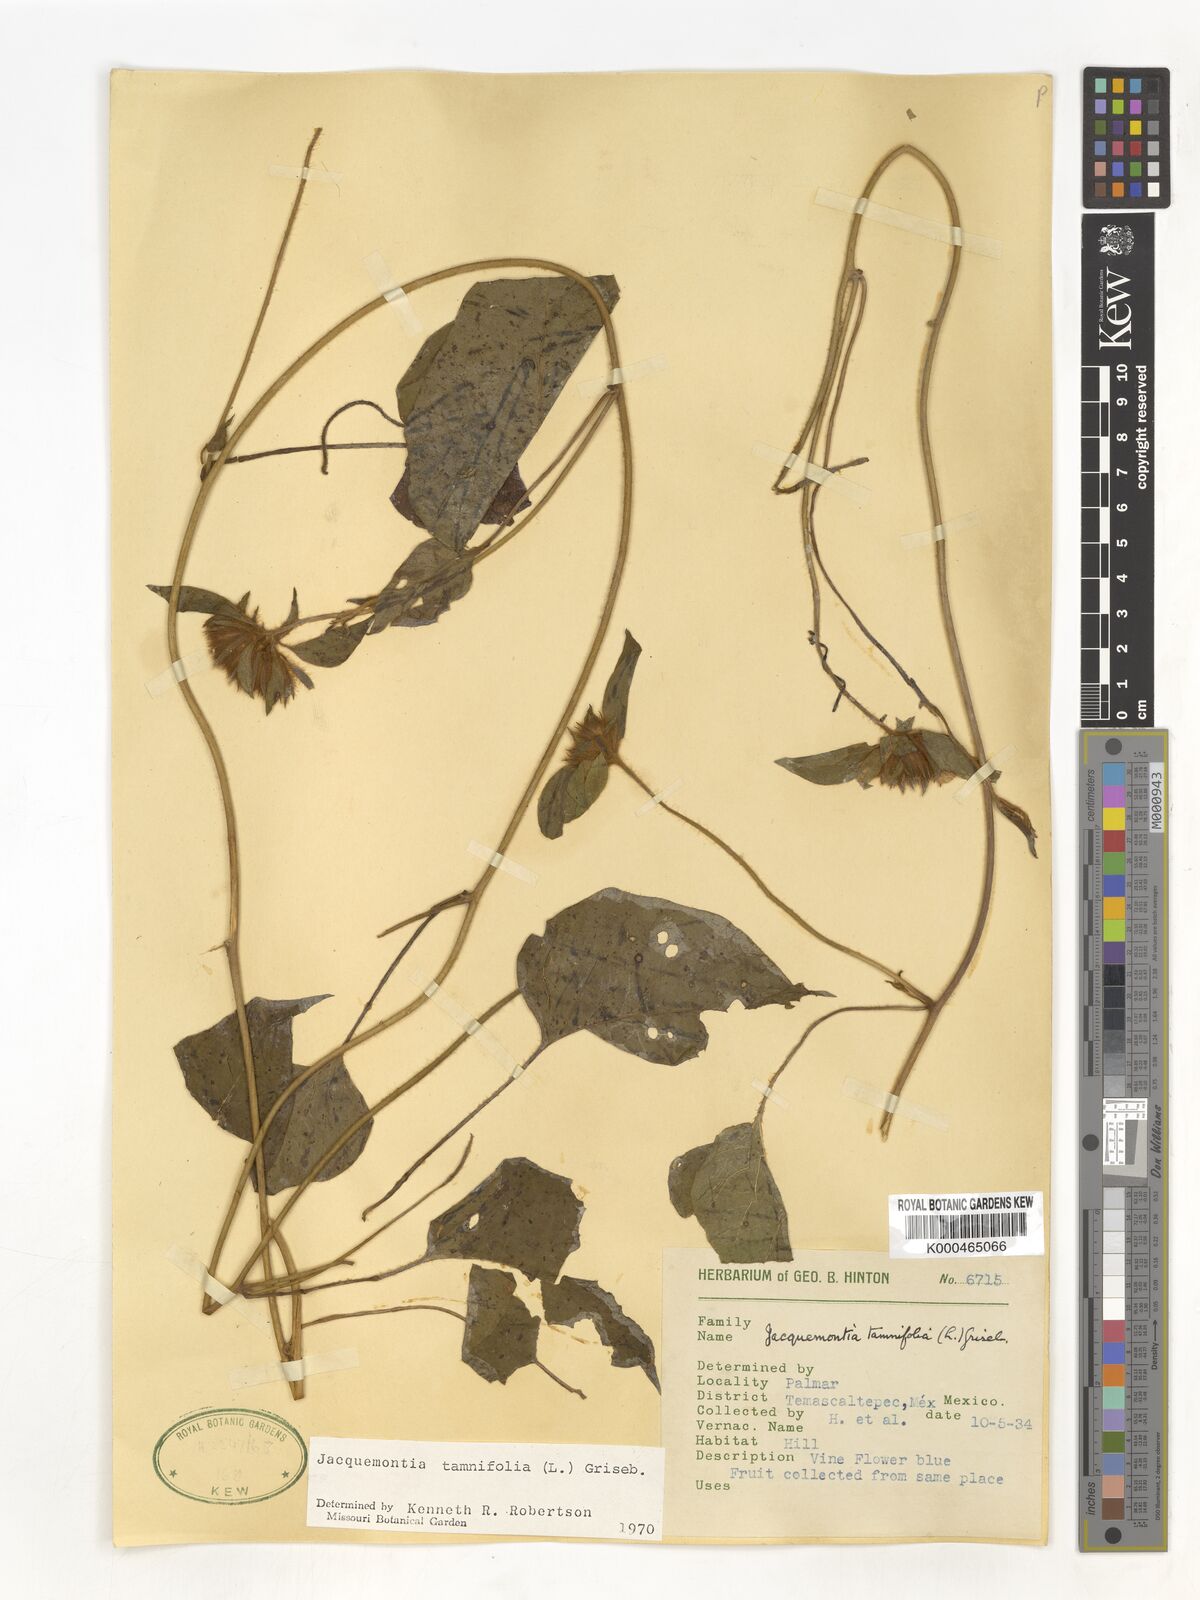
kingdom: Plantae
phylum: Tracheophyta
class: Magnoliopsida
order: Solanales
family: Convolvulaceae
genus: Jacquemontia
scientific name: Jacquemontia tamnifolia
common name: Hairy clustervine
